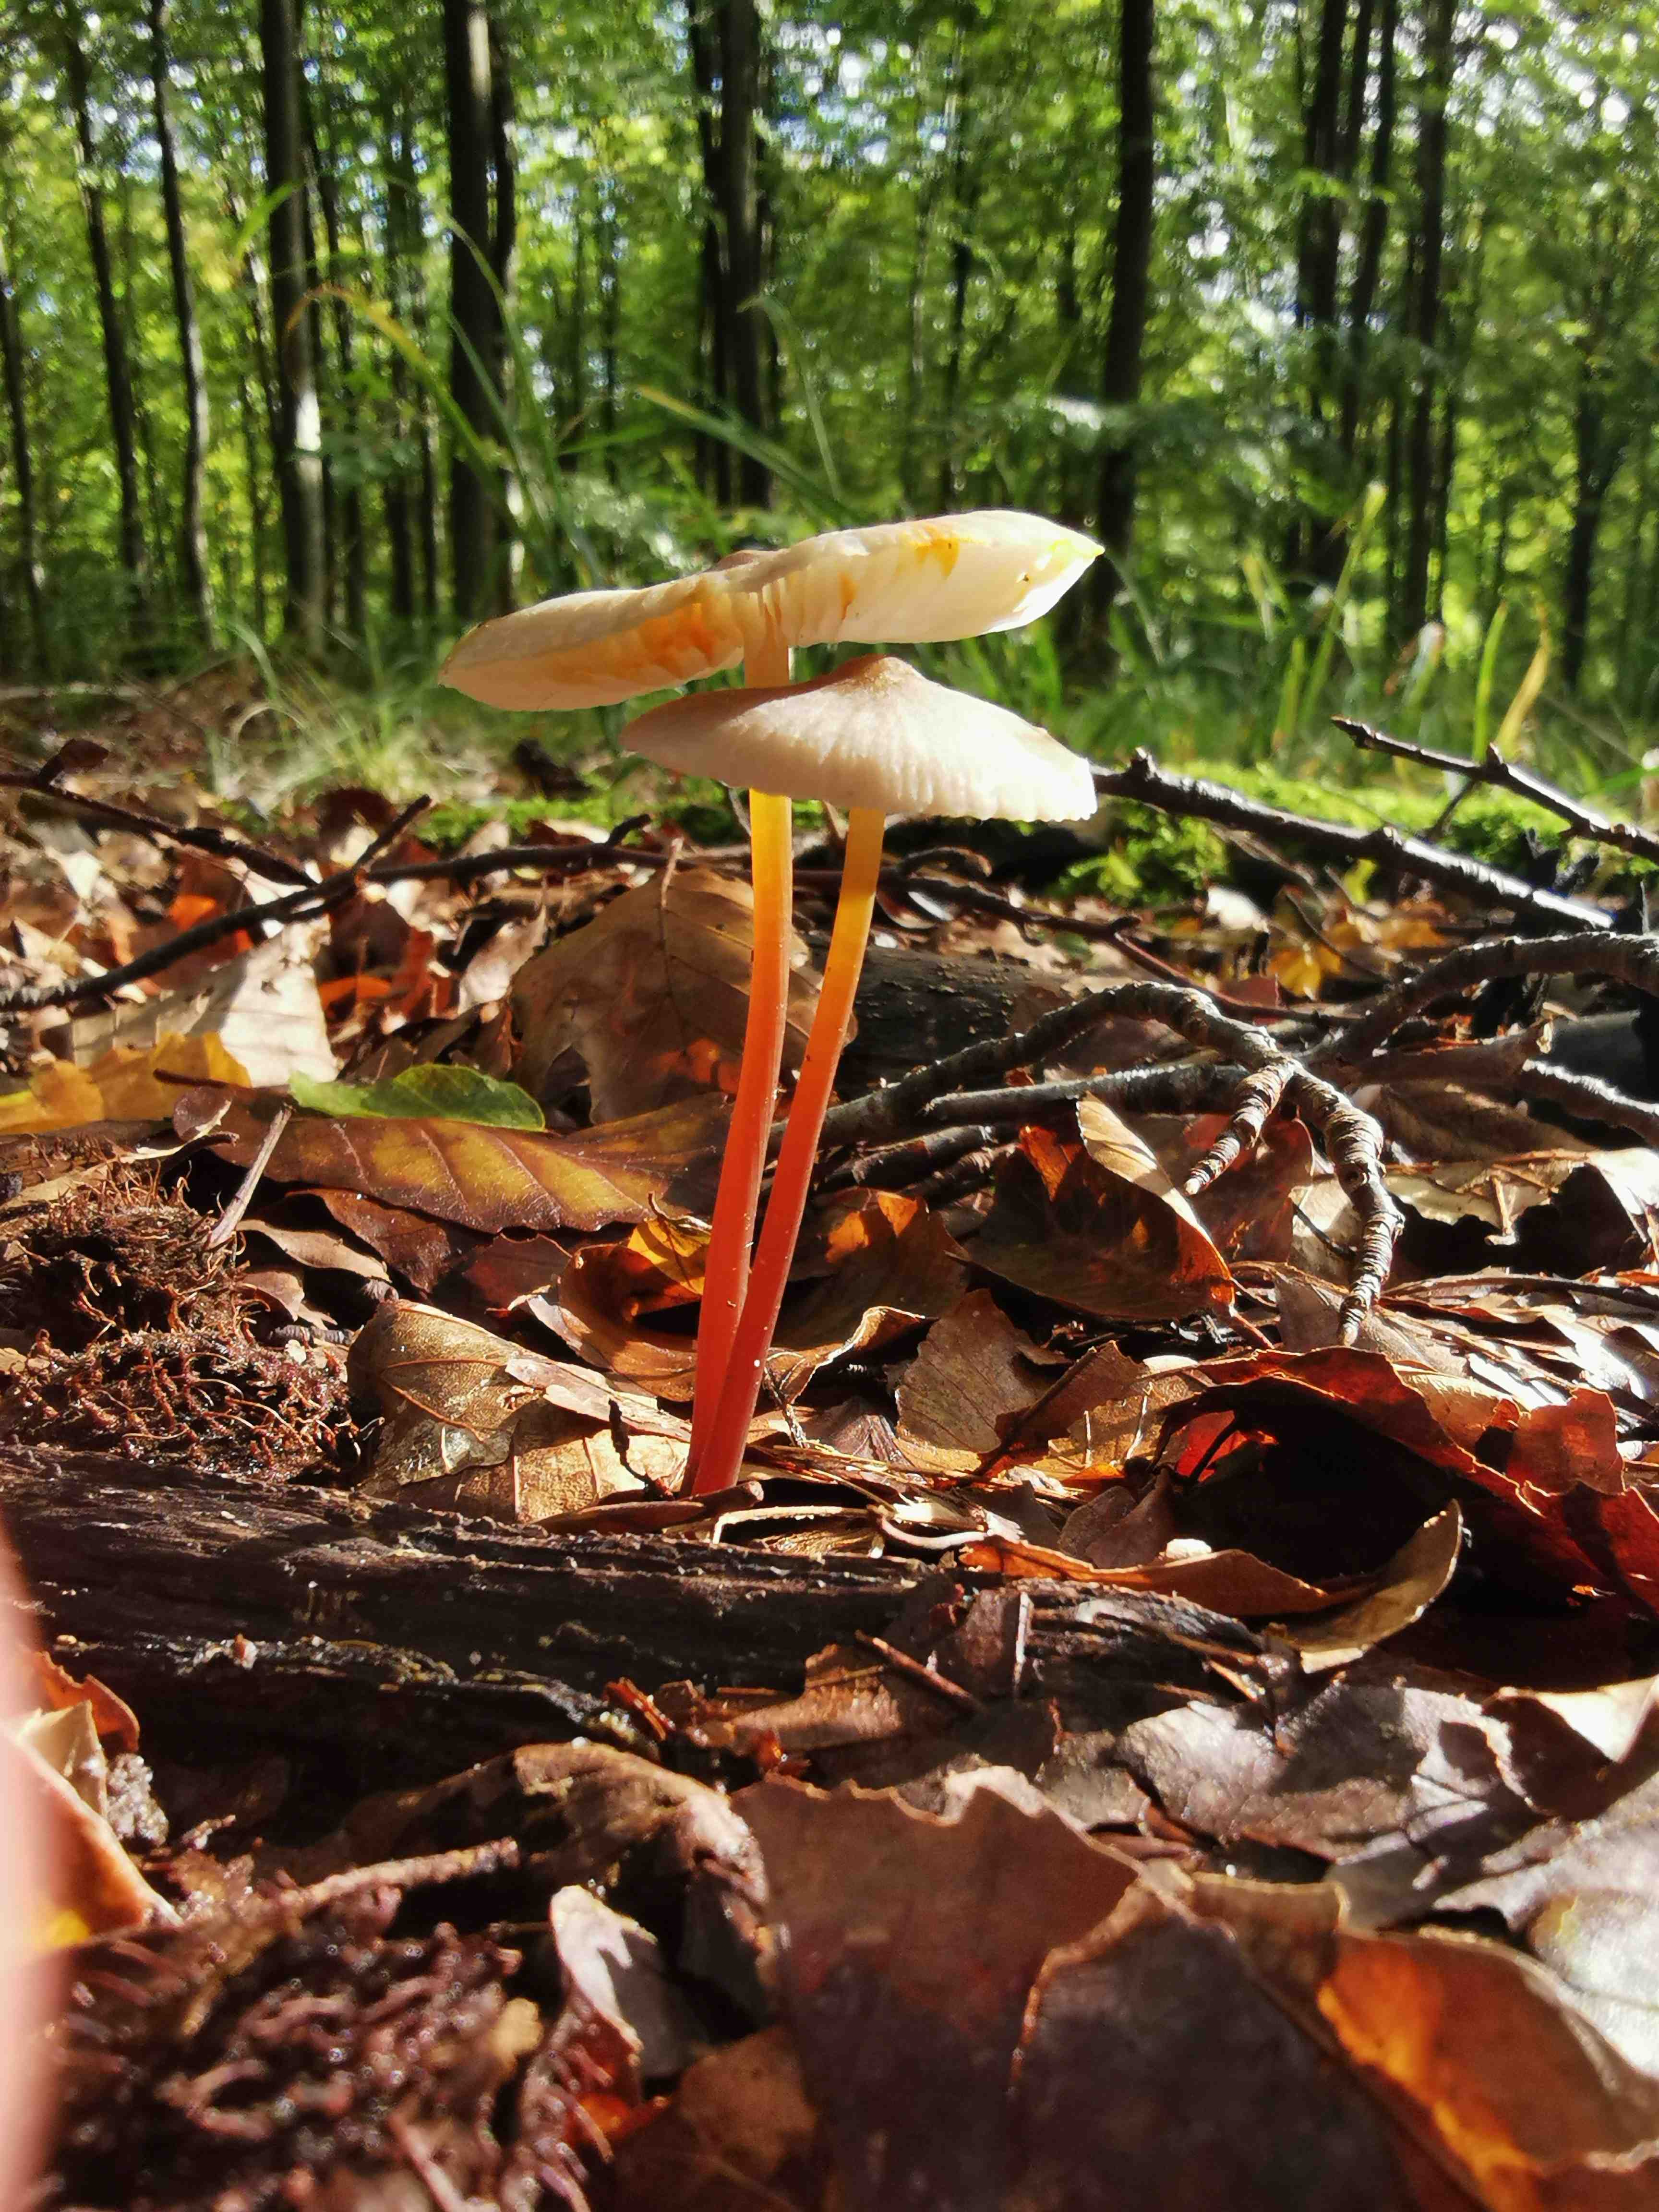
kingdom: Fungi
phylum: Basidiomycota
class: Agaricomycetes
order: Agaricales
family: Mycenaceae
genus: Mycena
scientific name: Mycena crocata
